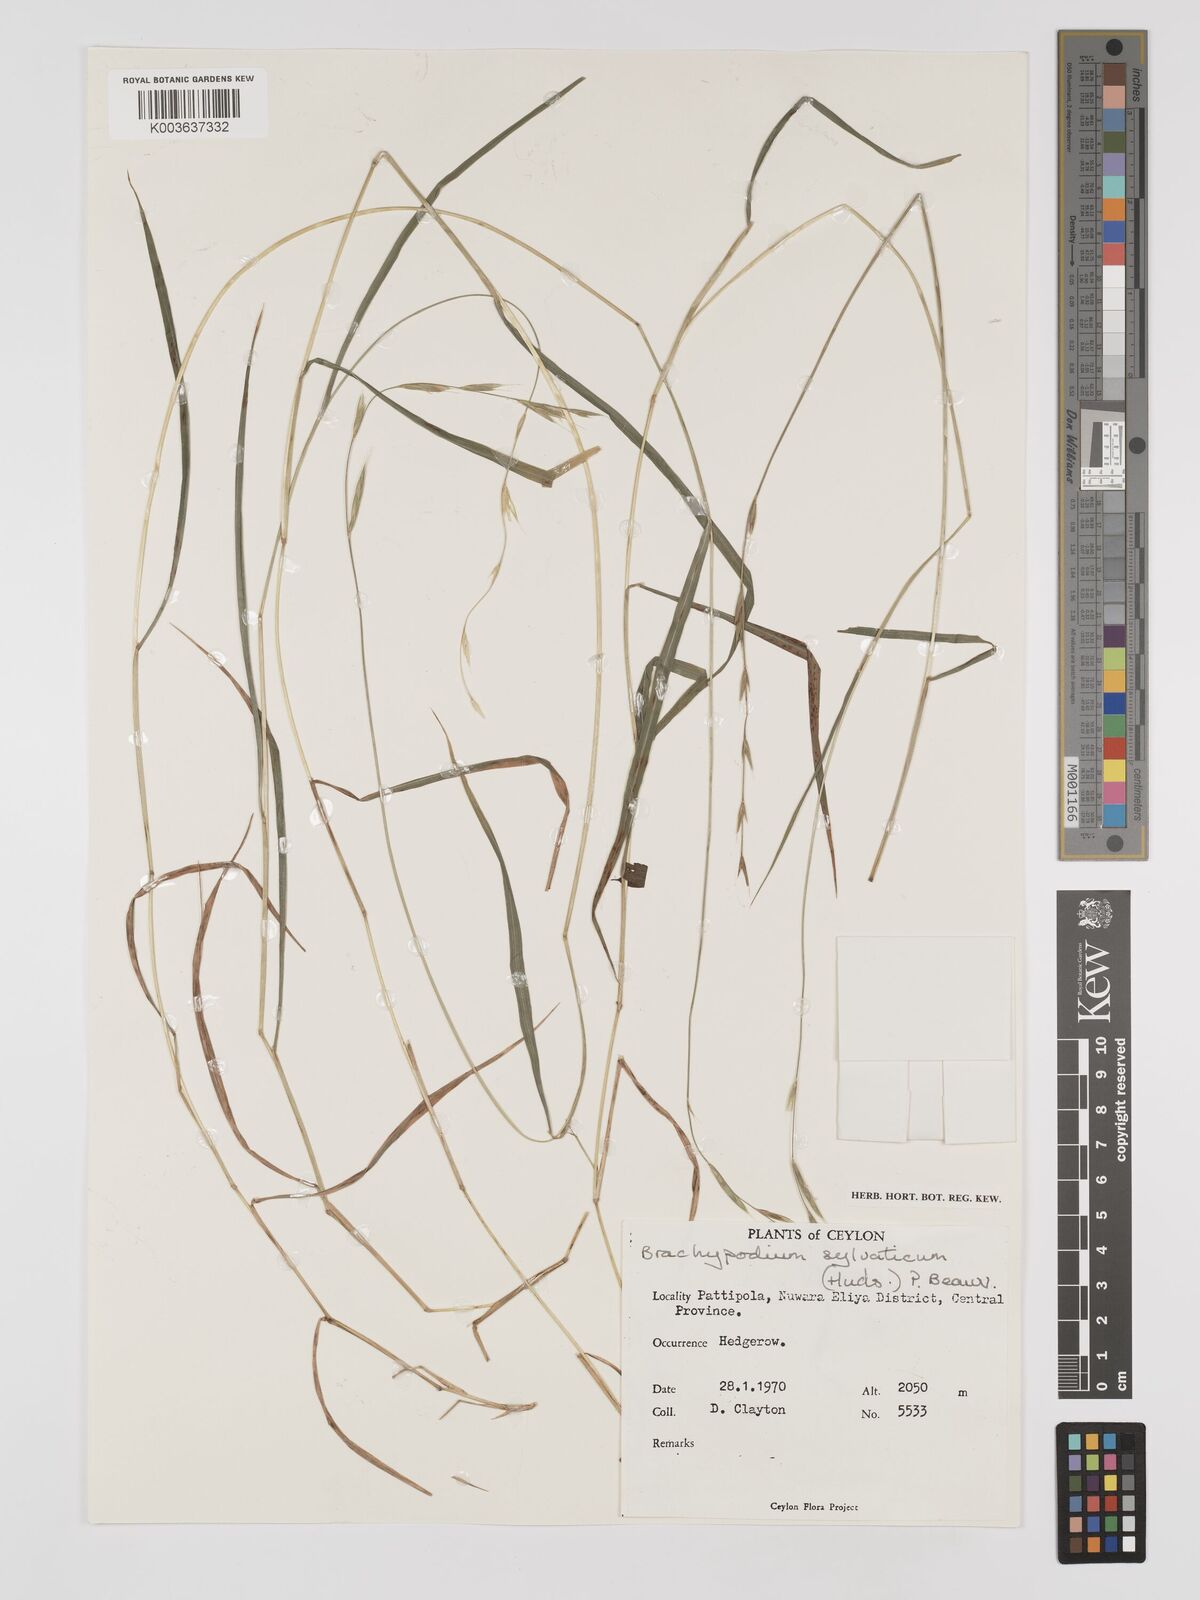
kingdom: Plantae
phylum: Tracheophyta
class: Liliopsida
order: Poales
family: Poaceae
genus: Brachypodium
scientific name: Brachypodium sylvaticum
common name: False-brome
